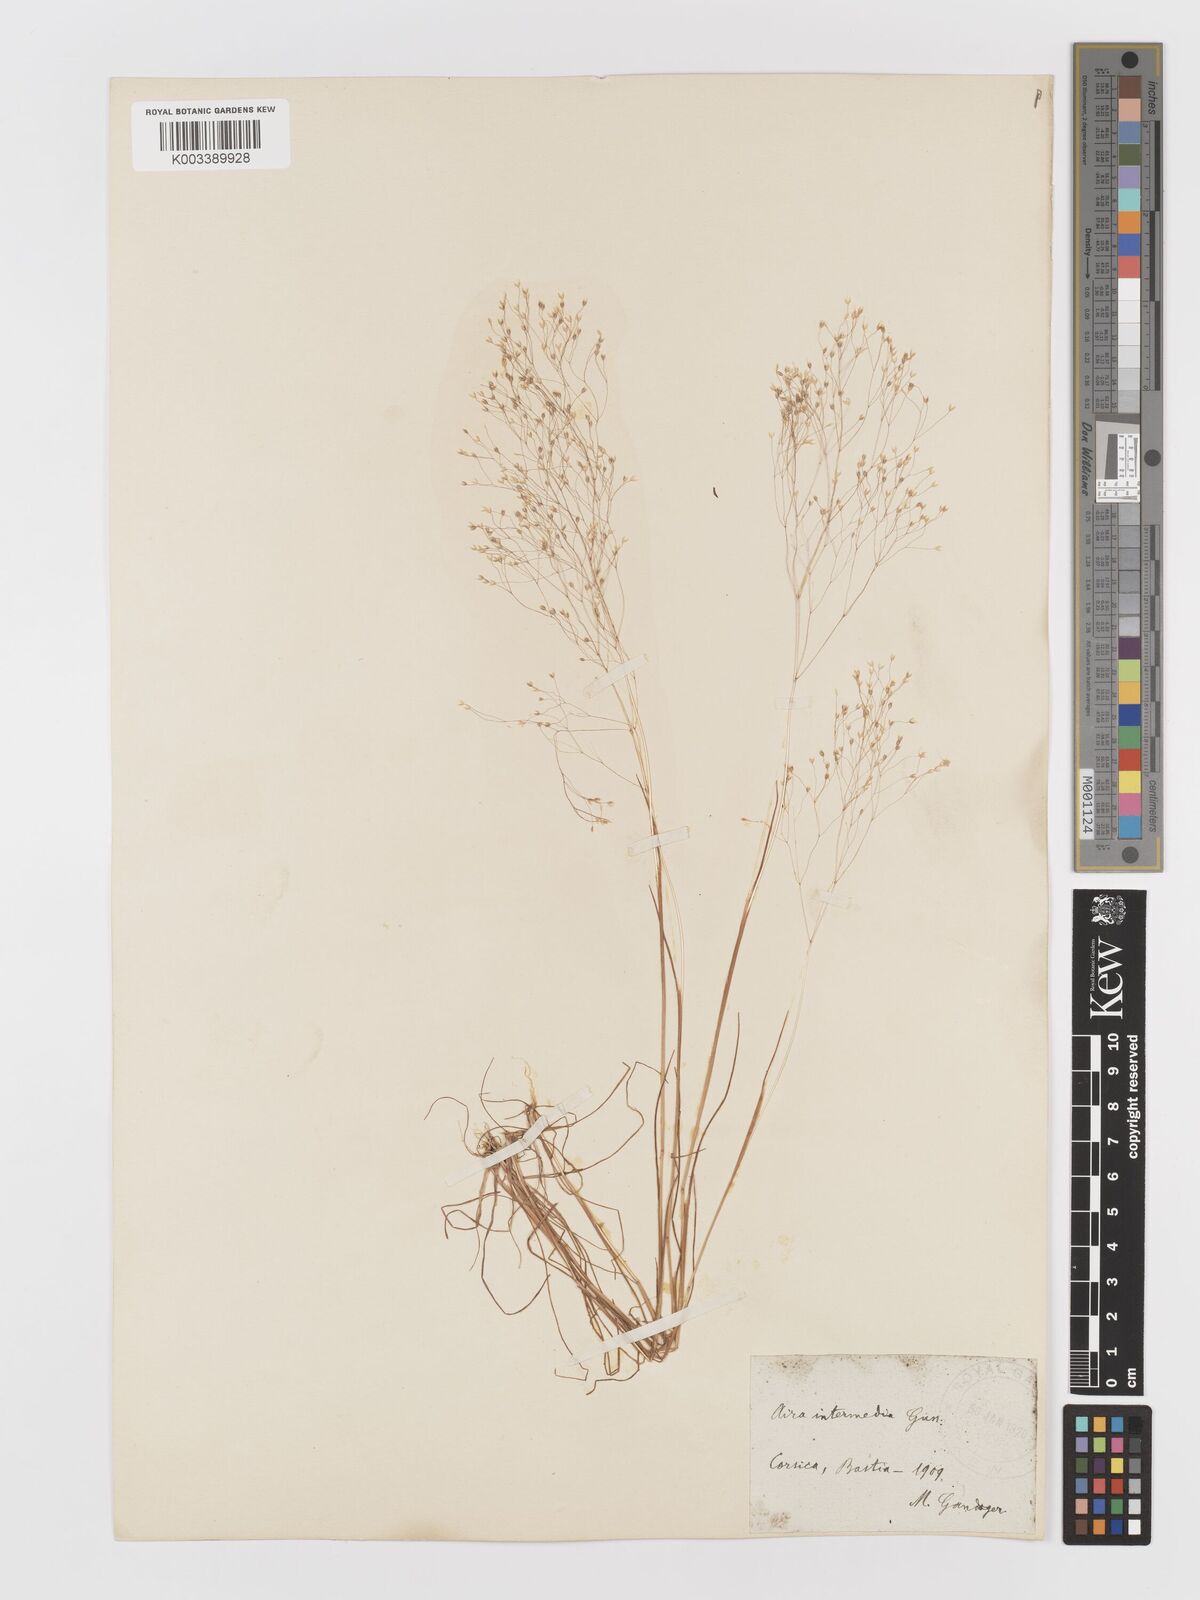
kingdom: Plantae
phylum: Tracheophyta
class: Liliopsida
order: Poales
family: Poaceae
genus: Aira
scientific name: Aira
